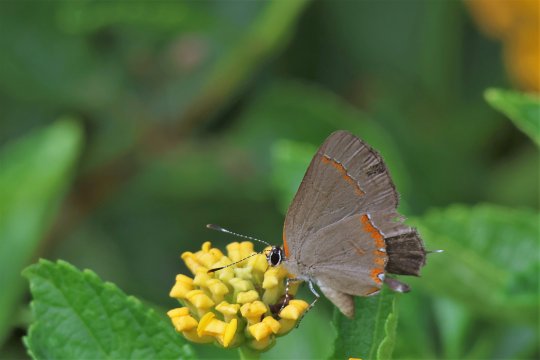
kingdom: Animalia
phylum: Arthropoda
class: Insecta
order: Lepidoptera
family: Lycaenidae
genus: Calycopis
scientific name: Calycopis cecrops
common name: Red-banded Hairstreak
